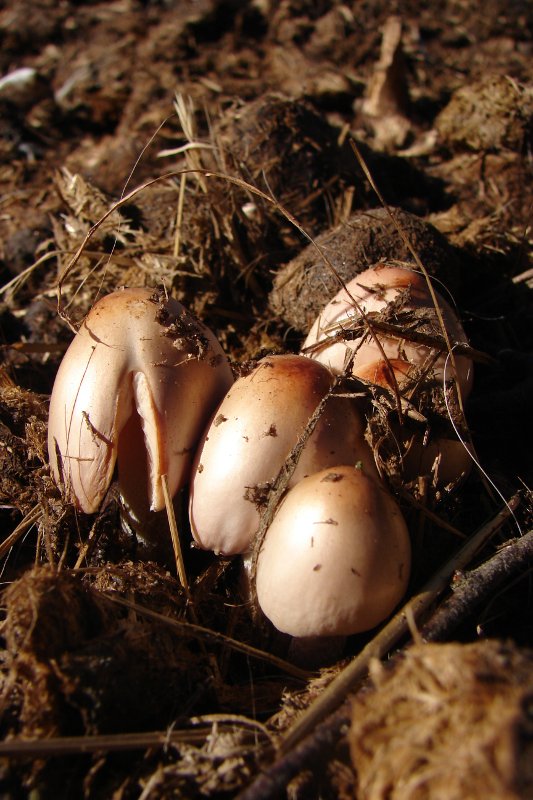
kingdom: Fungi
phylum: Basidiomycota
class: Agaricomycetes
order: Agaricales
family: Bolbitiaceae
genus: Bolbitius
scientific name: Bolbitius coprophilus
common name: rosa gulhat
